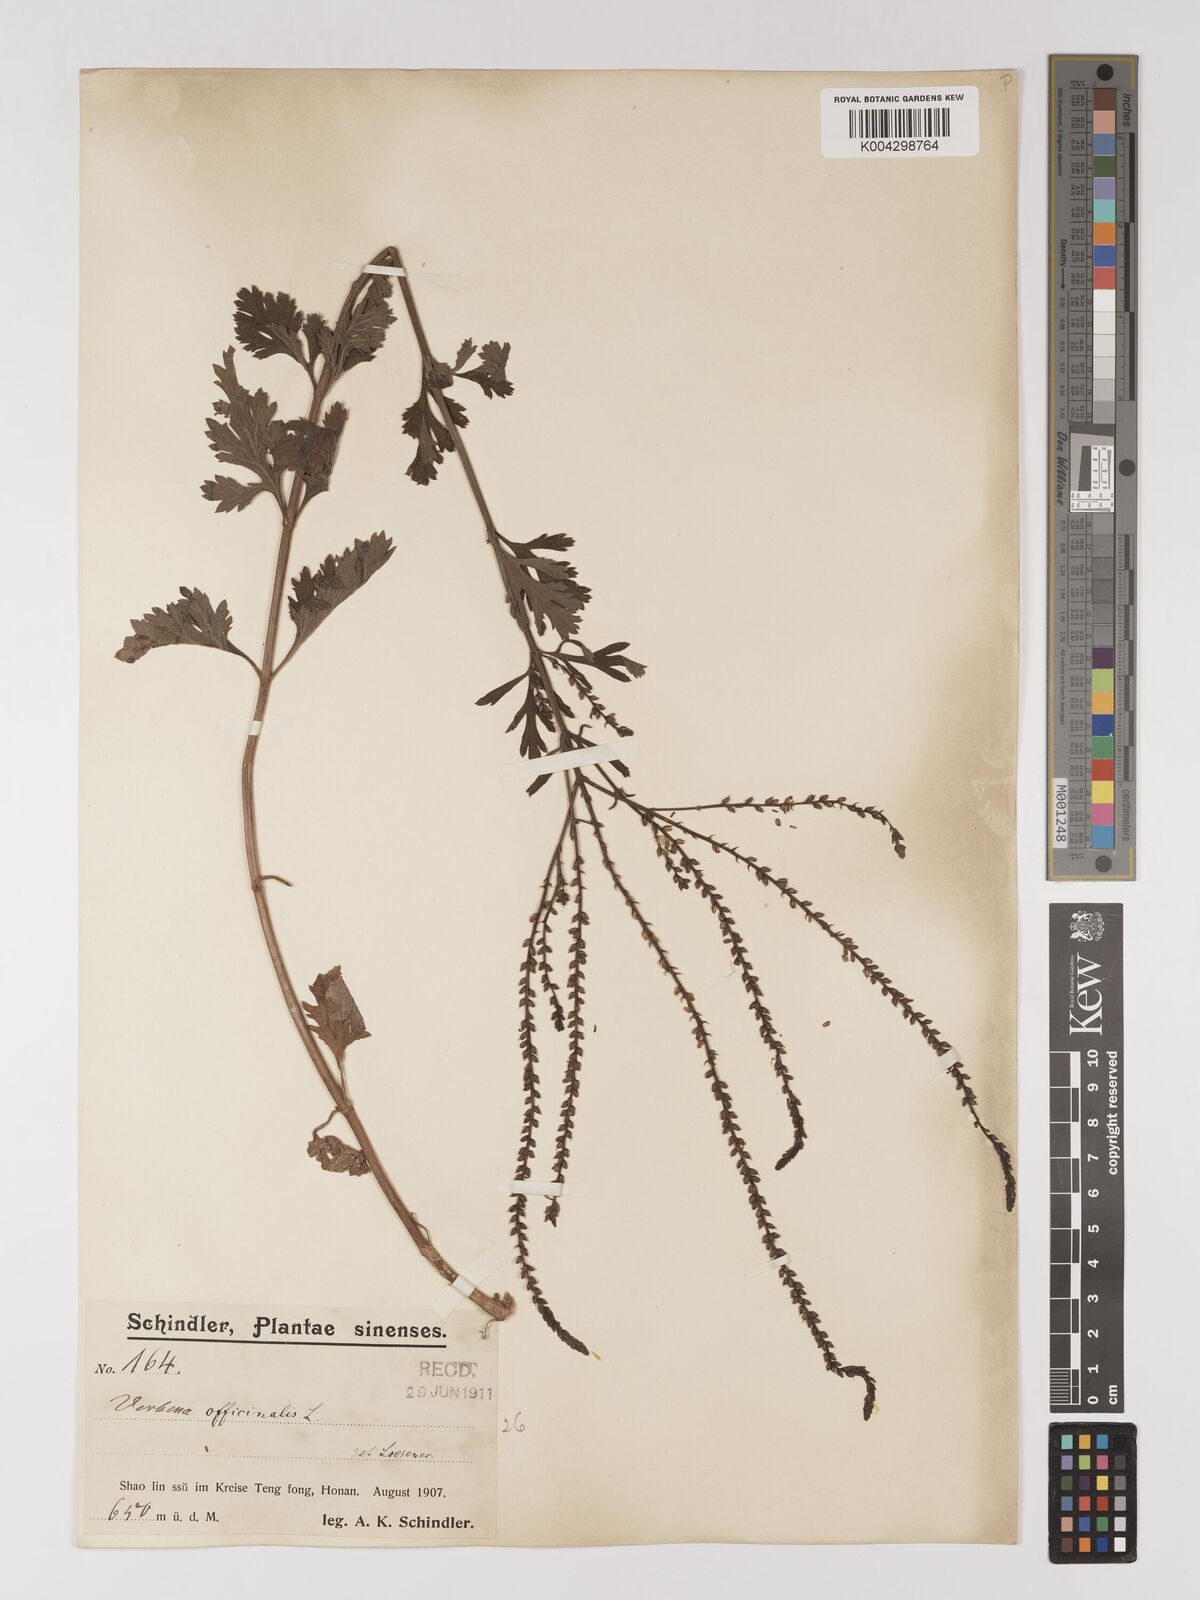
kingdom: Plantae
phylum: Tracheophyta
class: Magnoliopsida
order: Lamiales
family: Verbenaceae
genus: Verbena
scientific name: Verbena officinalis
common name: Vervain
